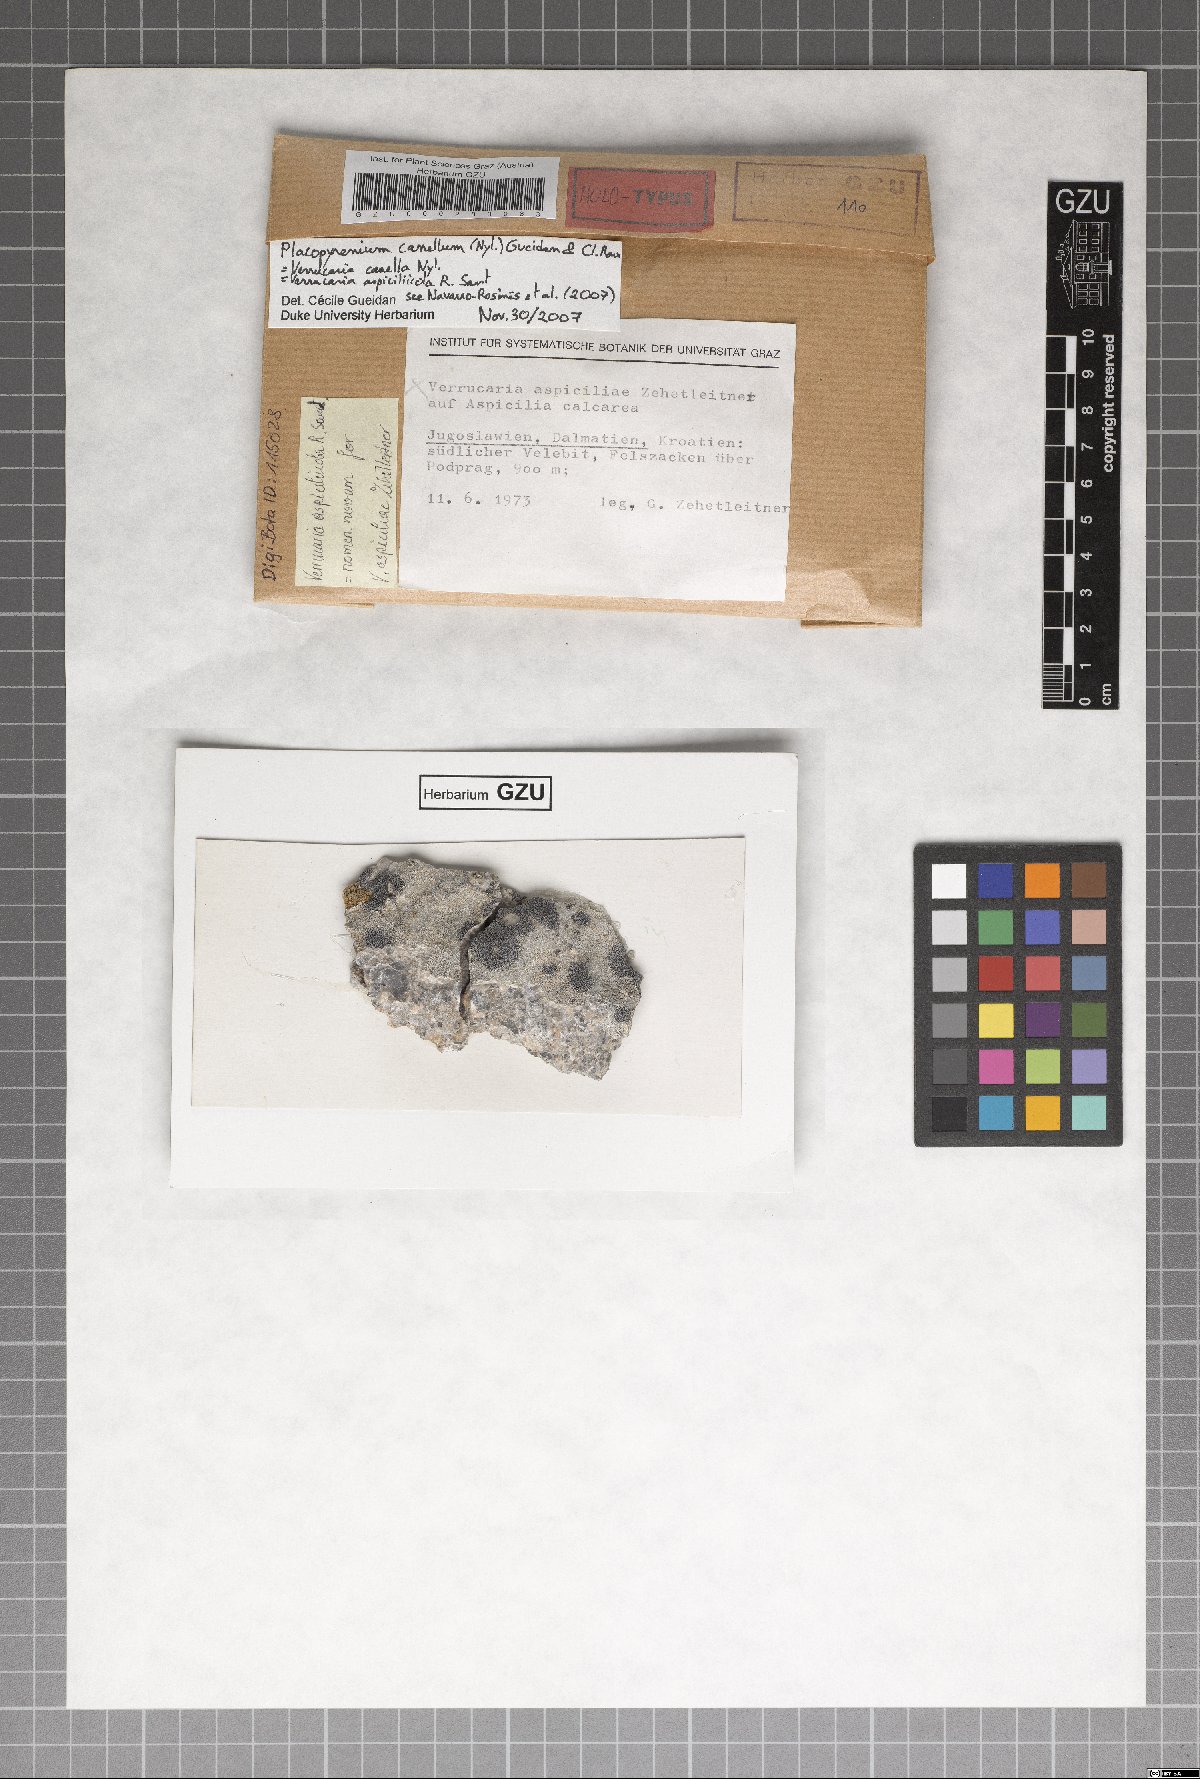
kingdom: Fungi
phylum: Ascomycota
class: Eurotiomycetes
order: Verrucariales
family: Verrucariaceae
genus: Verrucaria
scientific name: Verrucaria canella
